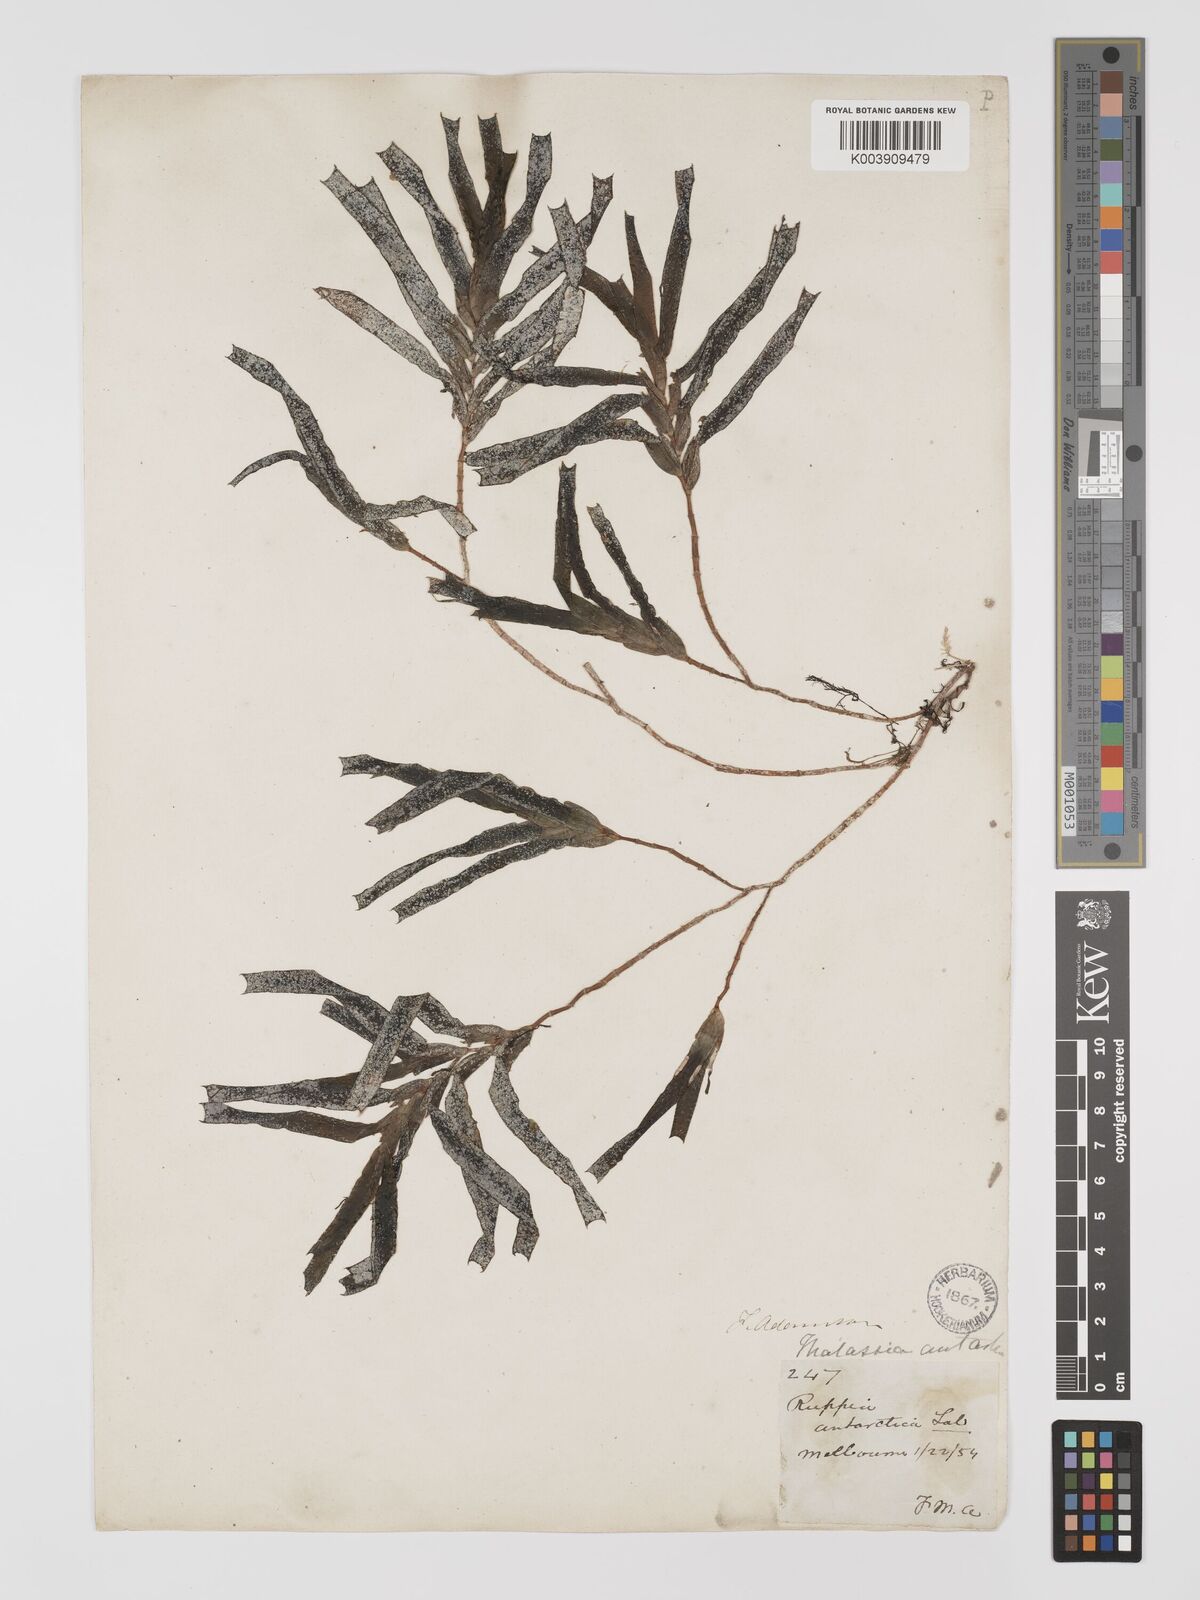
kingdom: Plantae
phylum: Tracheophyta
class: Liliopsida
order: Alismatales
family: Cymodoceaceae
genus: Amphibolis
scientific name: Amphibolis antarctica
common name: Species code: aa
